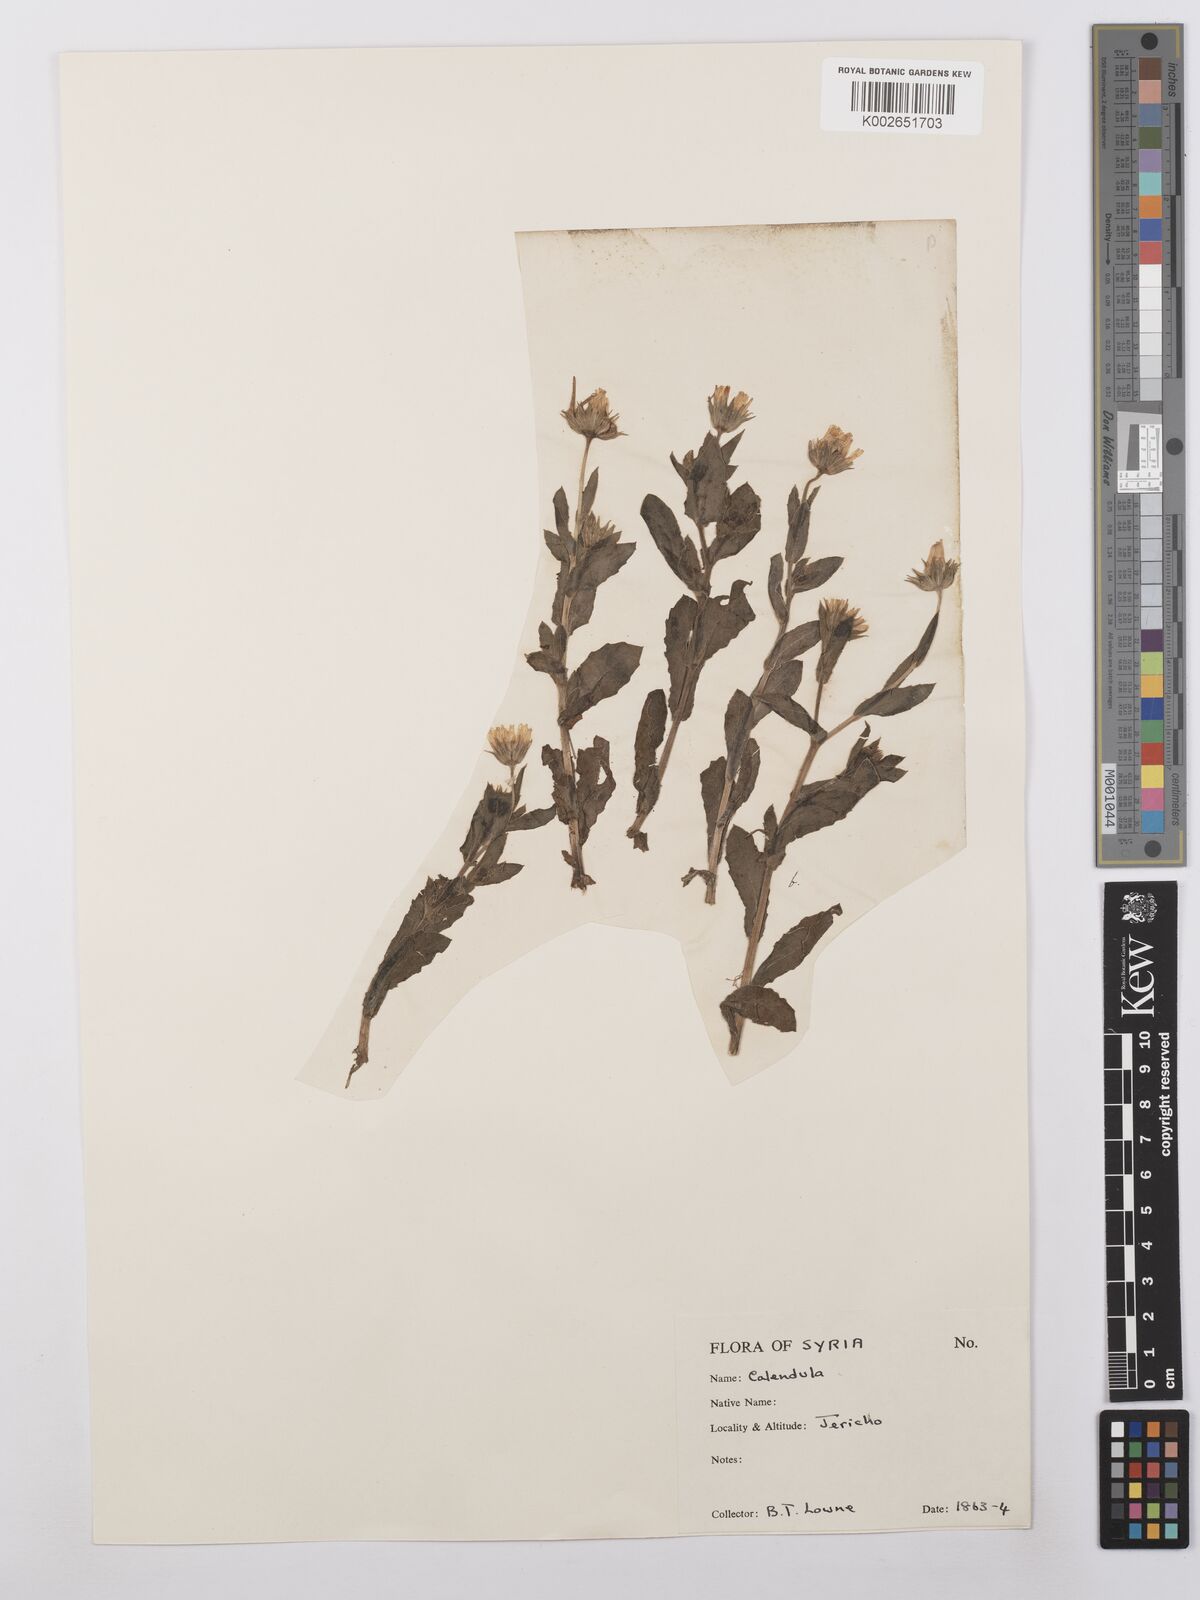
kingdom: Plantae
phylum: Tracheophyta
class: Magnoliopsida
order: Asterales
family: Asteraceae
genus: Calendula
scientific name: Calendula palaestina
